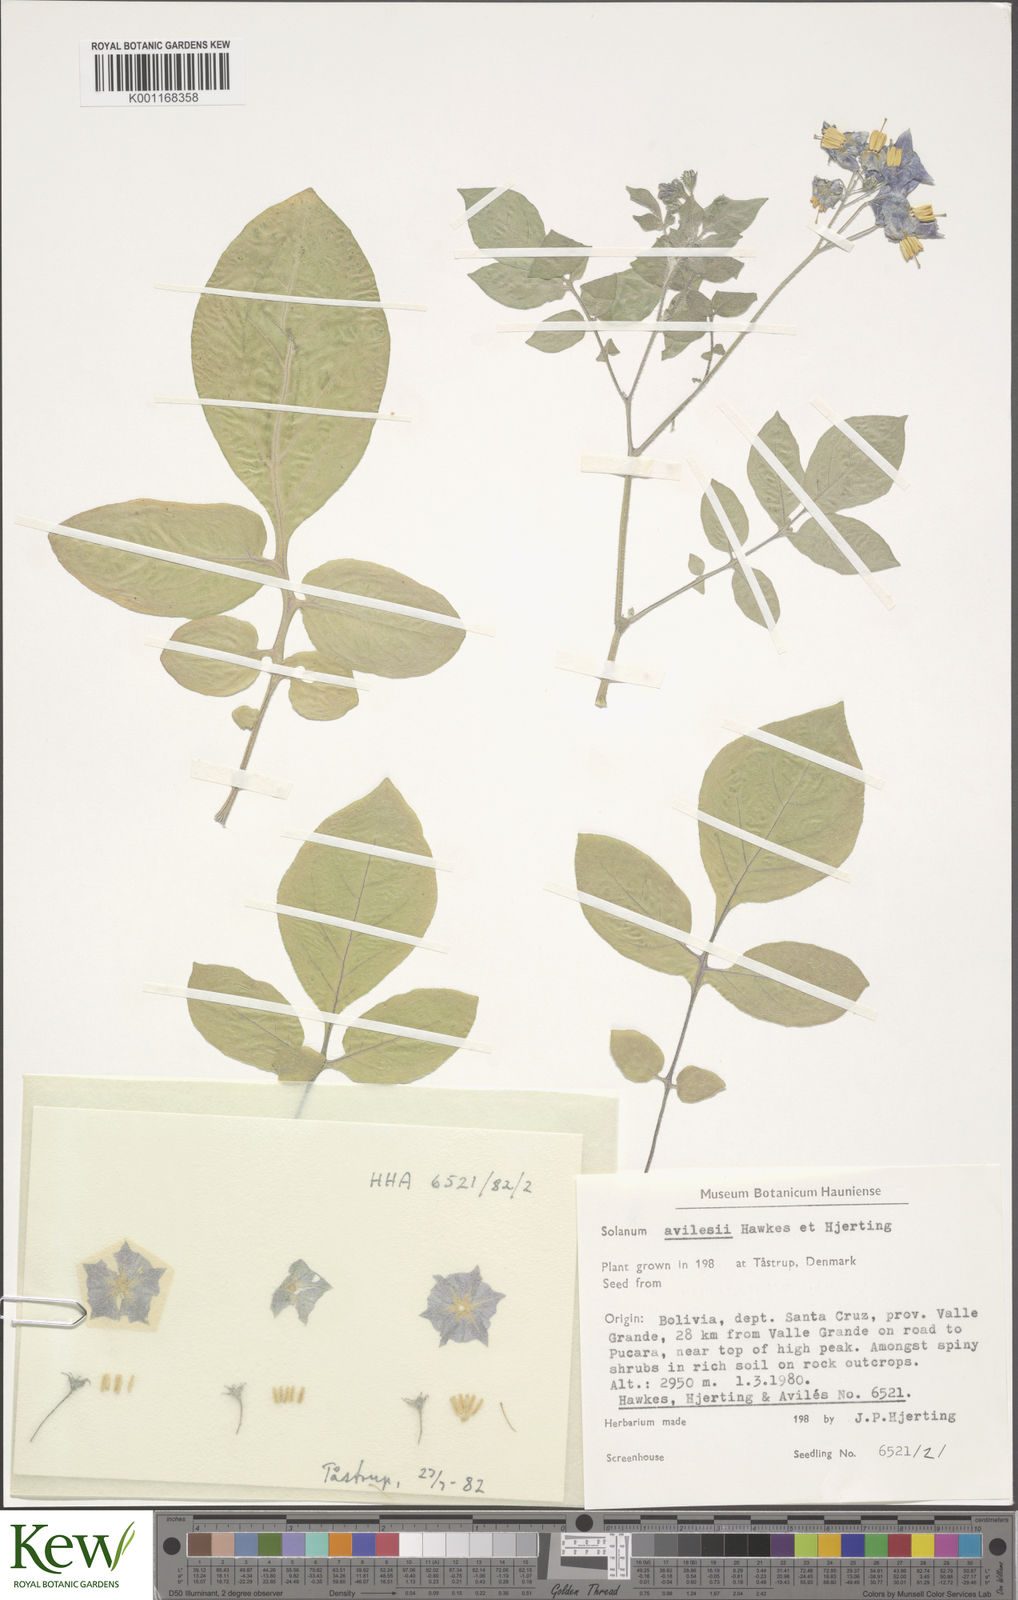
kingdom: Plantae
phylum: Tracheophyta
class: Magnoliopsida
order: Solanales
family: Solanaceae
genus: Solanum
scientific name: Solanum brevicaule
